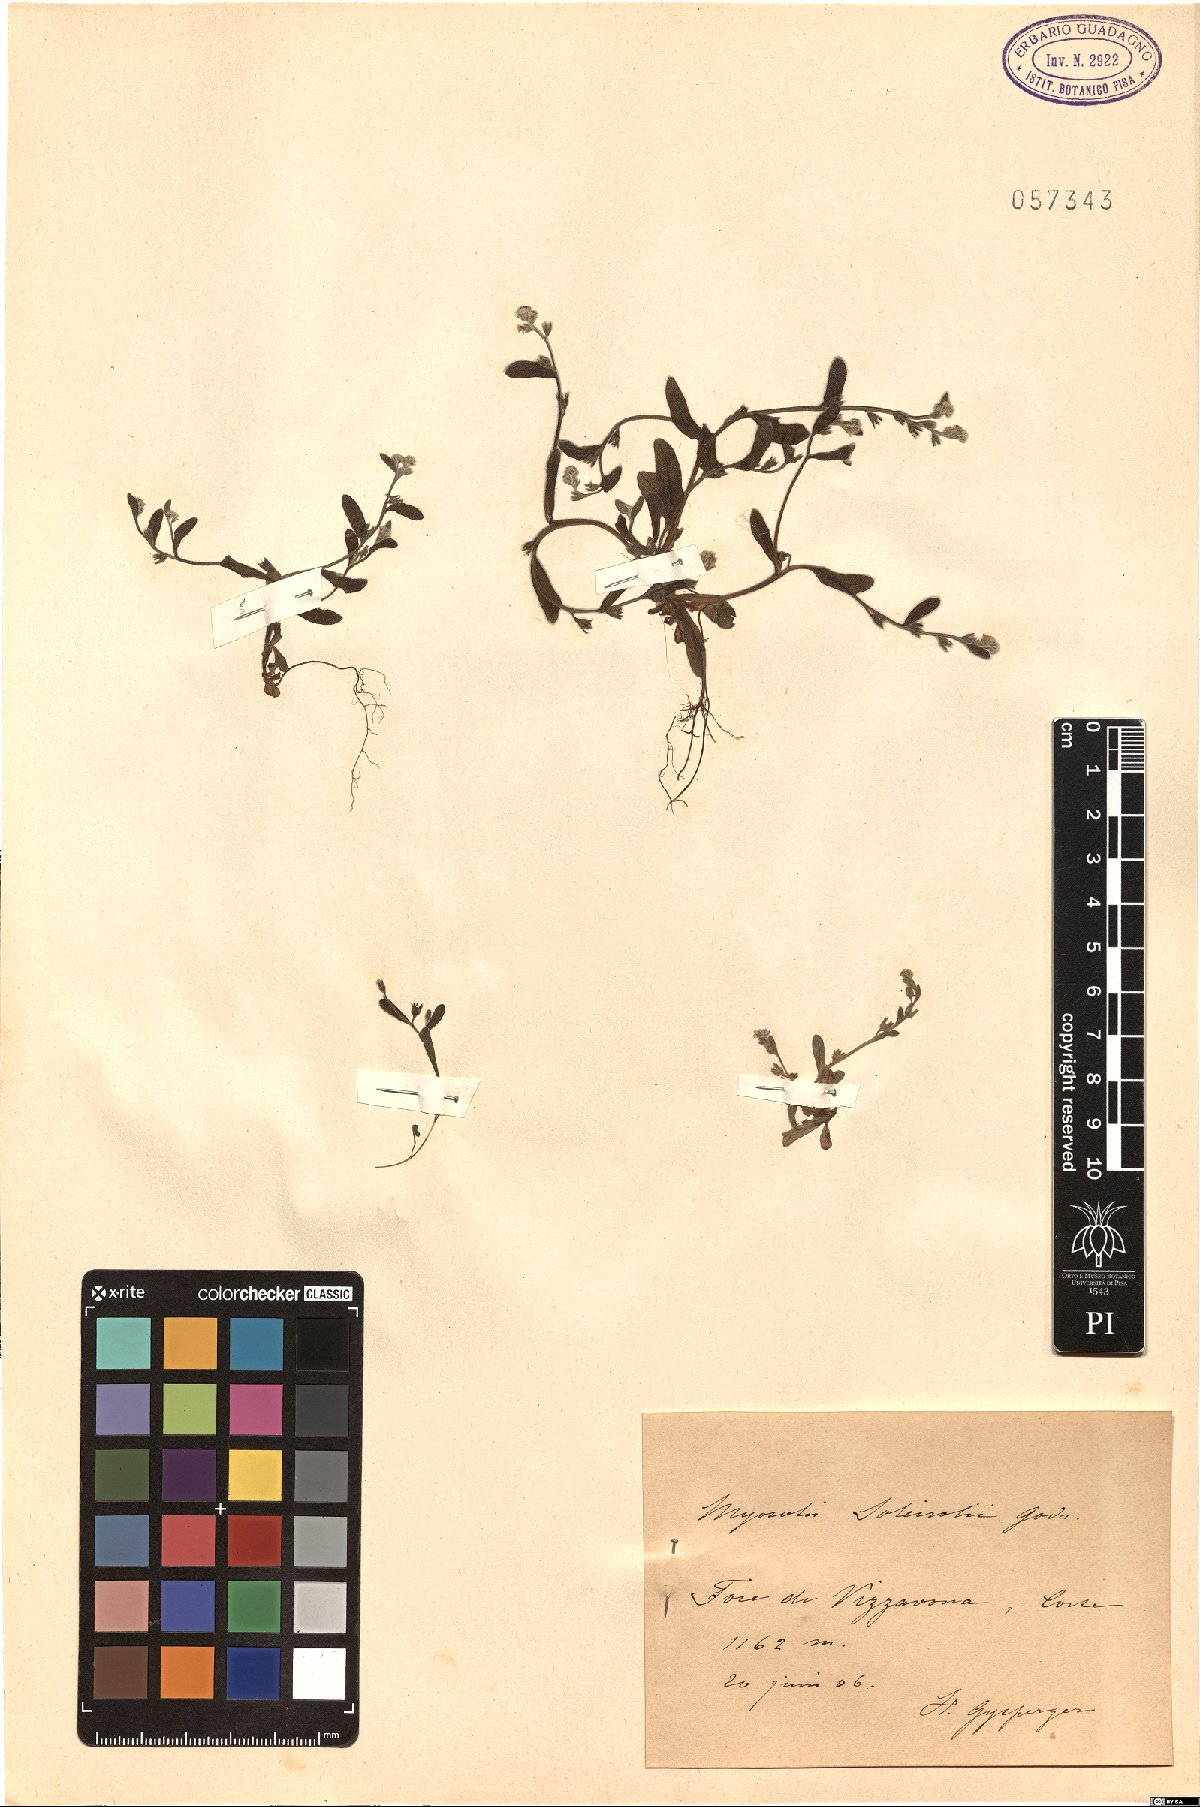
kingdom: Plantae
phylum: Tracheophyta
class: Magnoliopsida
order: Boraginales
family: Boraginaceae
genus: Myosotis
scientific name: Myosotis soleirolii
